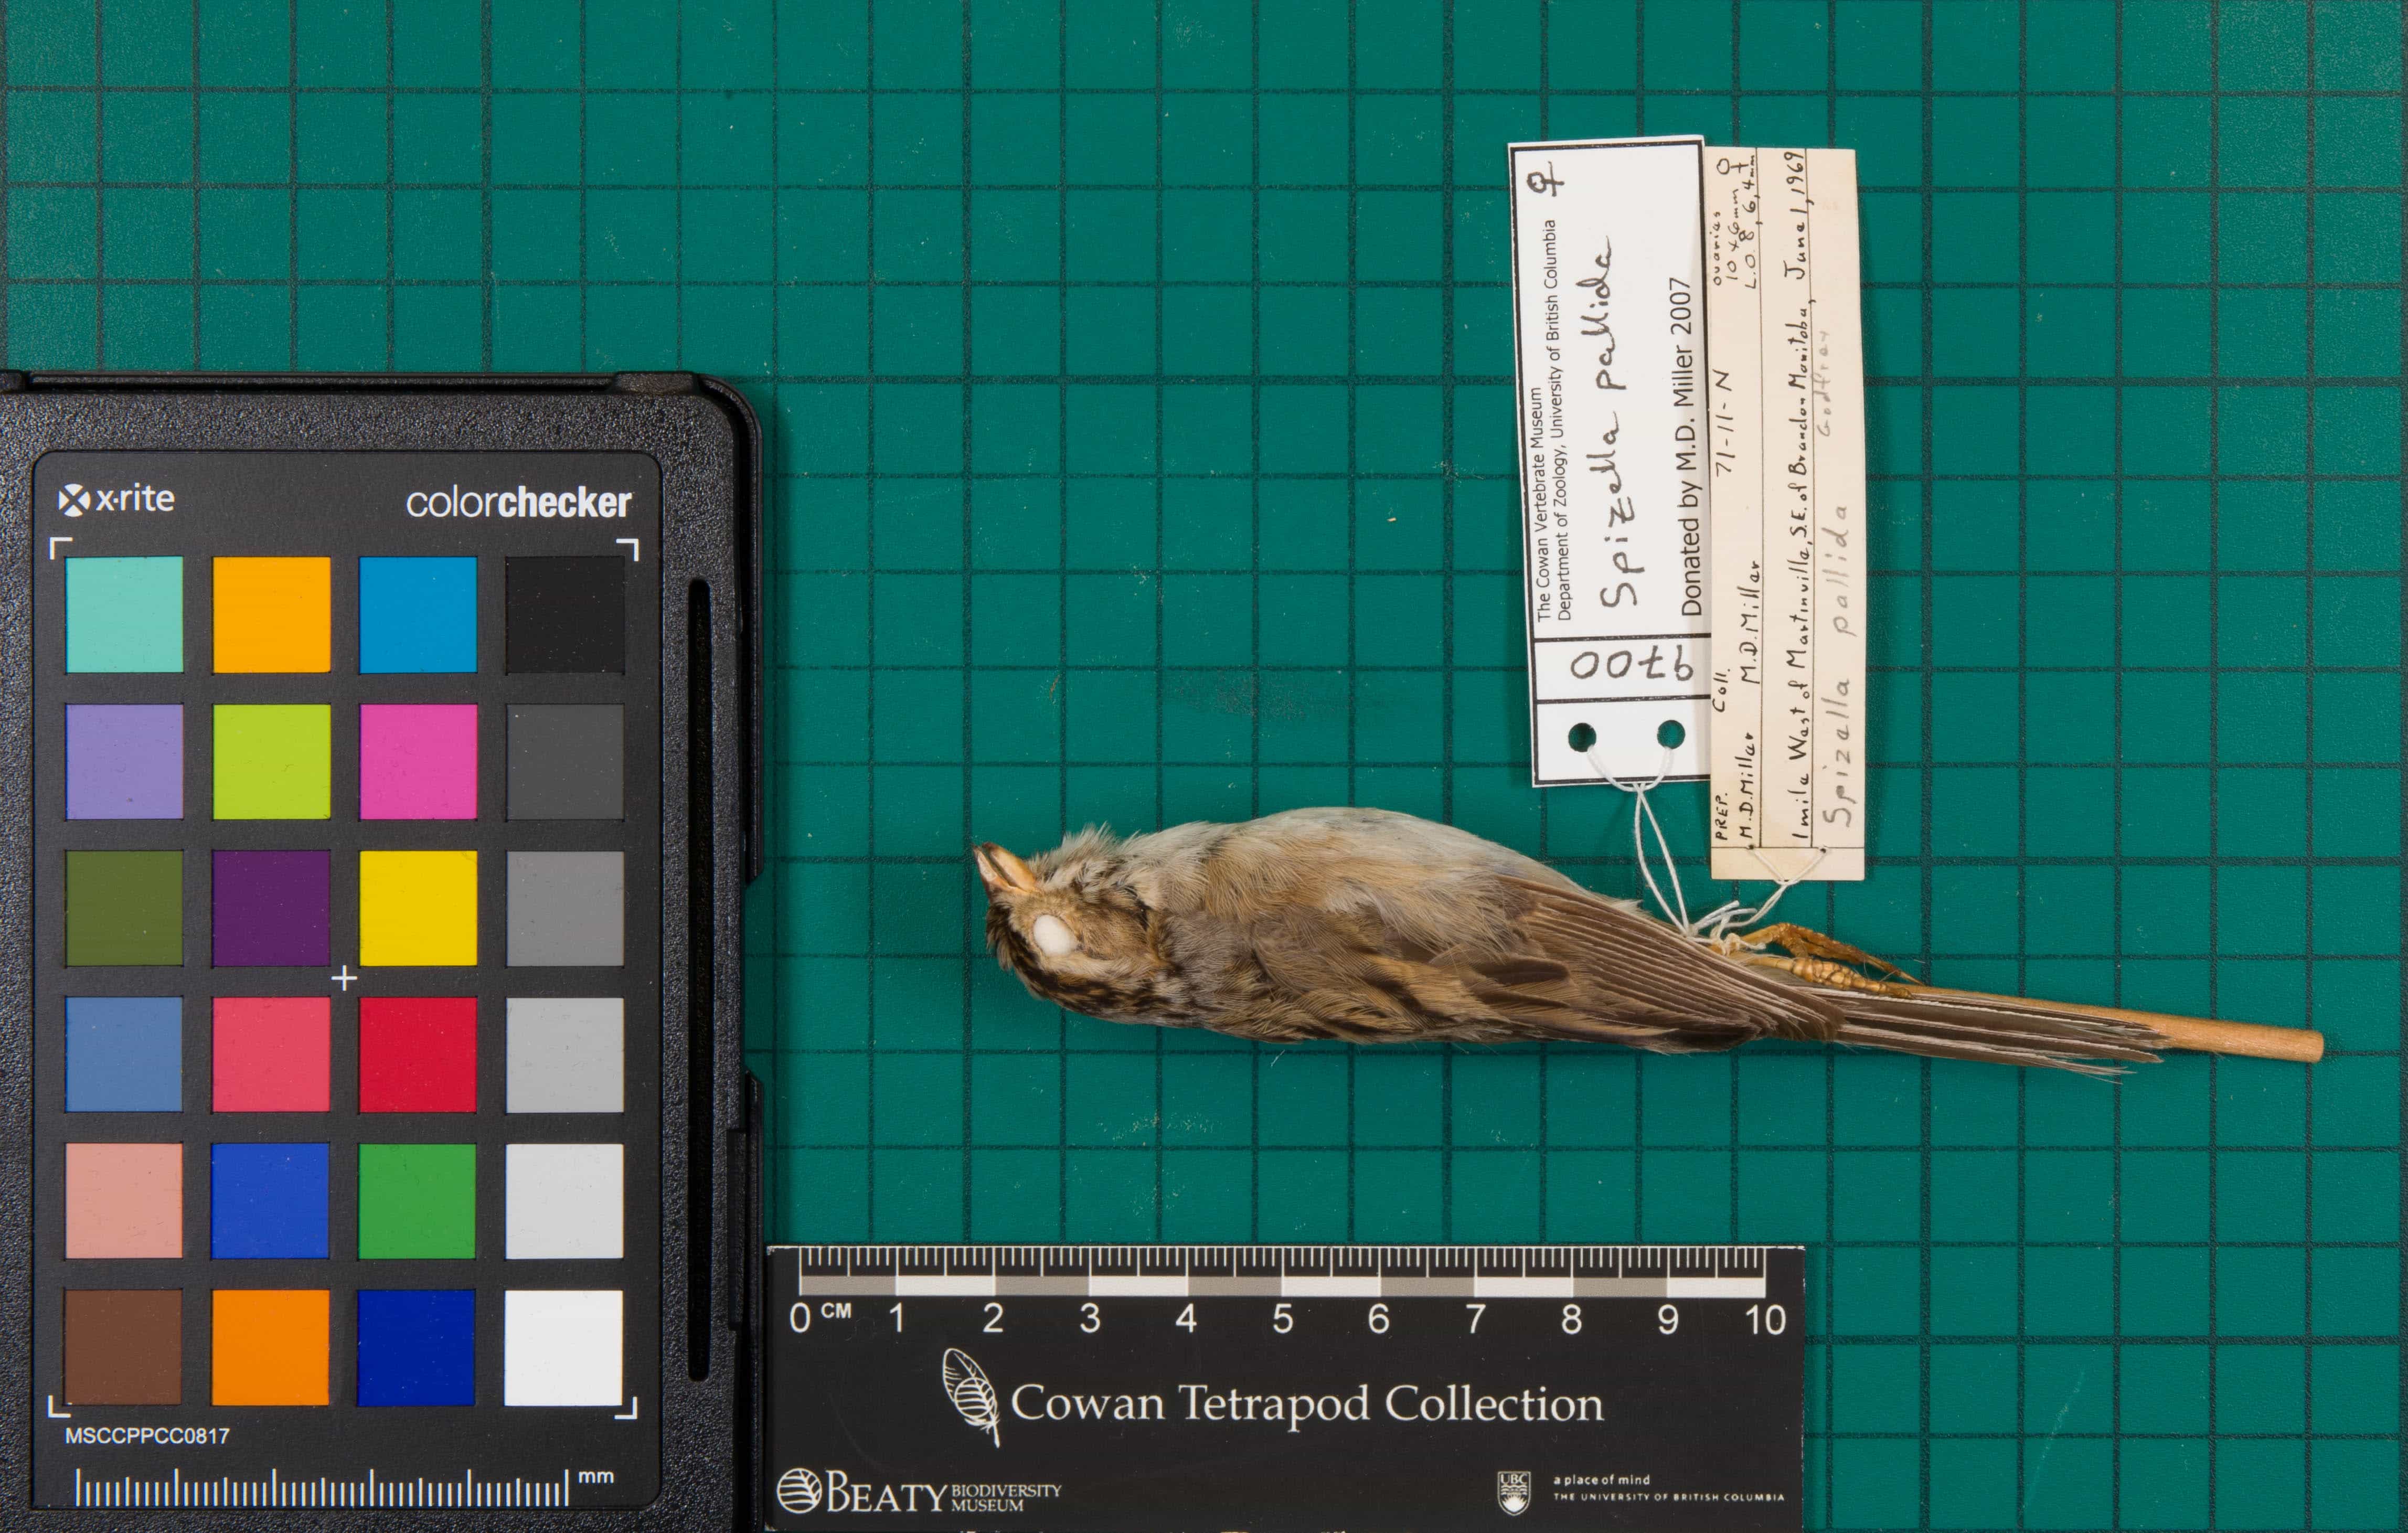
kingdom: Animalia
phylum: Chordata
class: Aves
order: Passeriformes
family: Passerellidae
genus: Spizella
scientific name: Spizella pallida
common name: Clay-colored Sparrow
